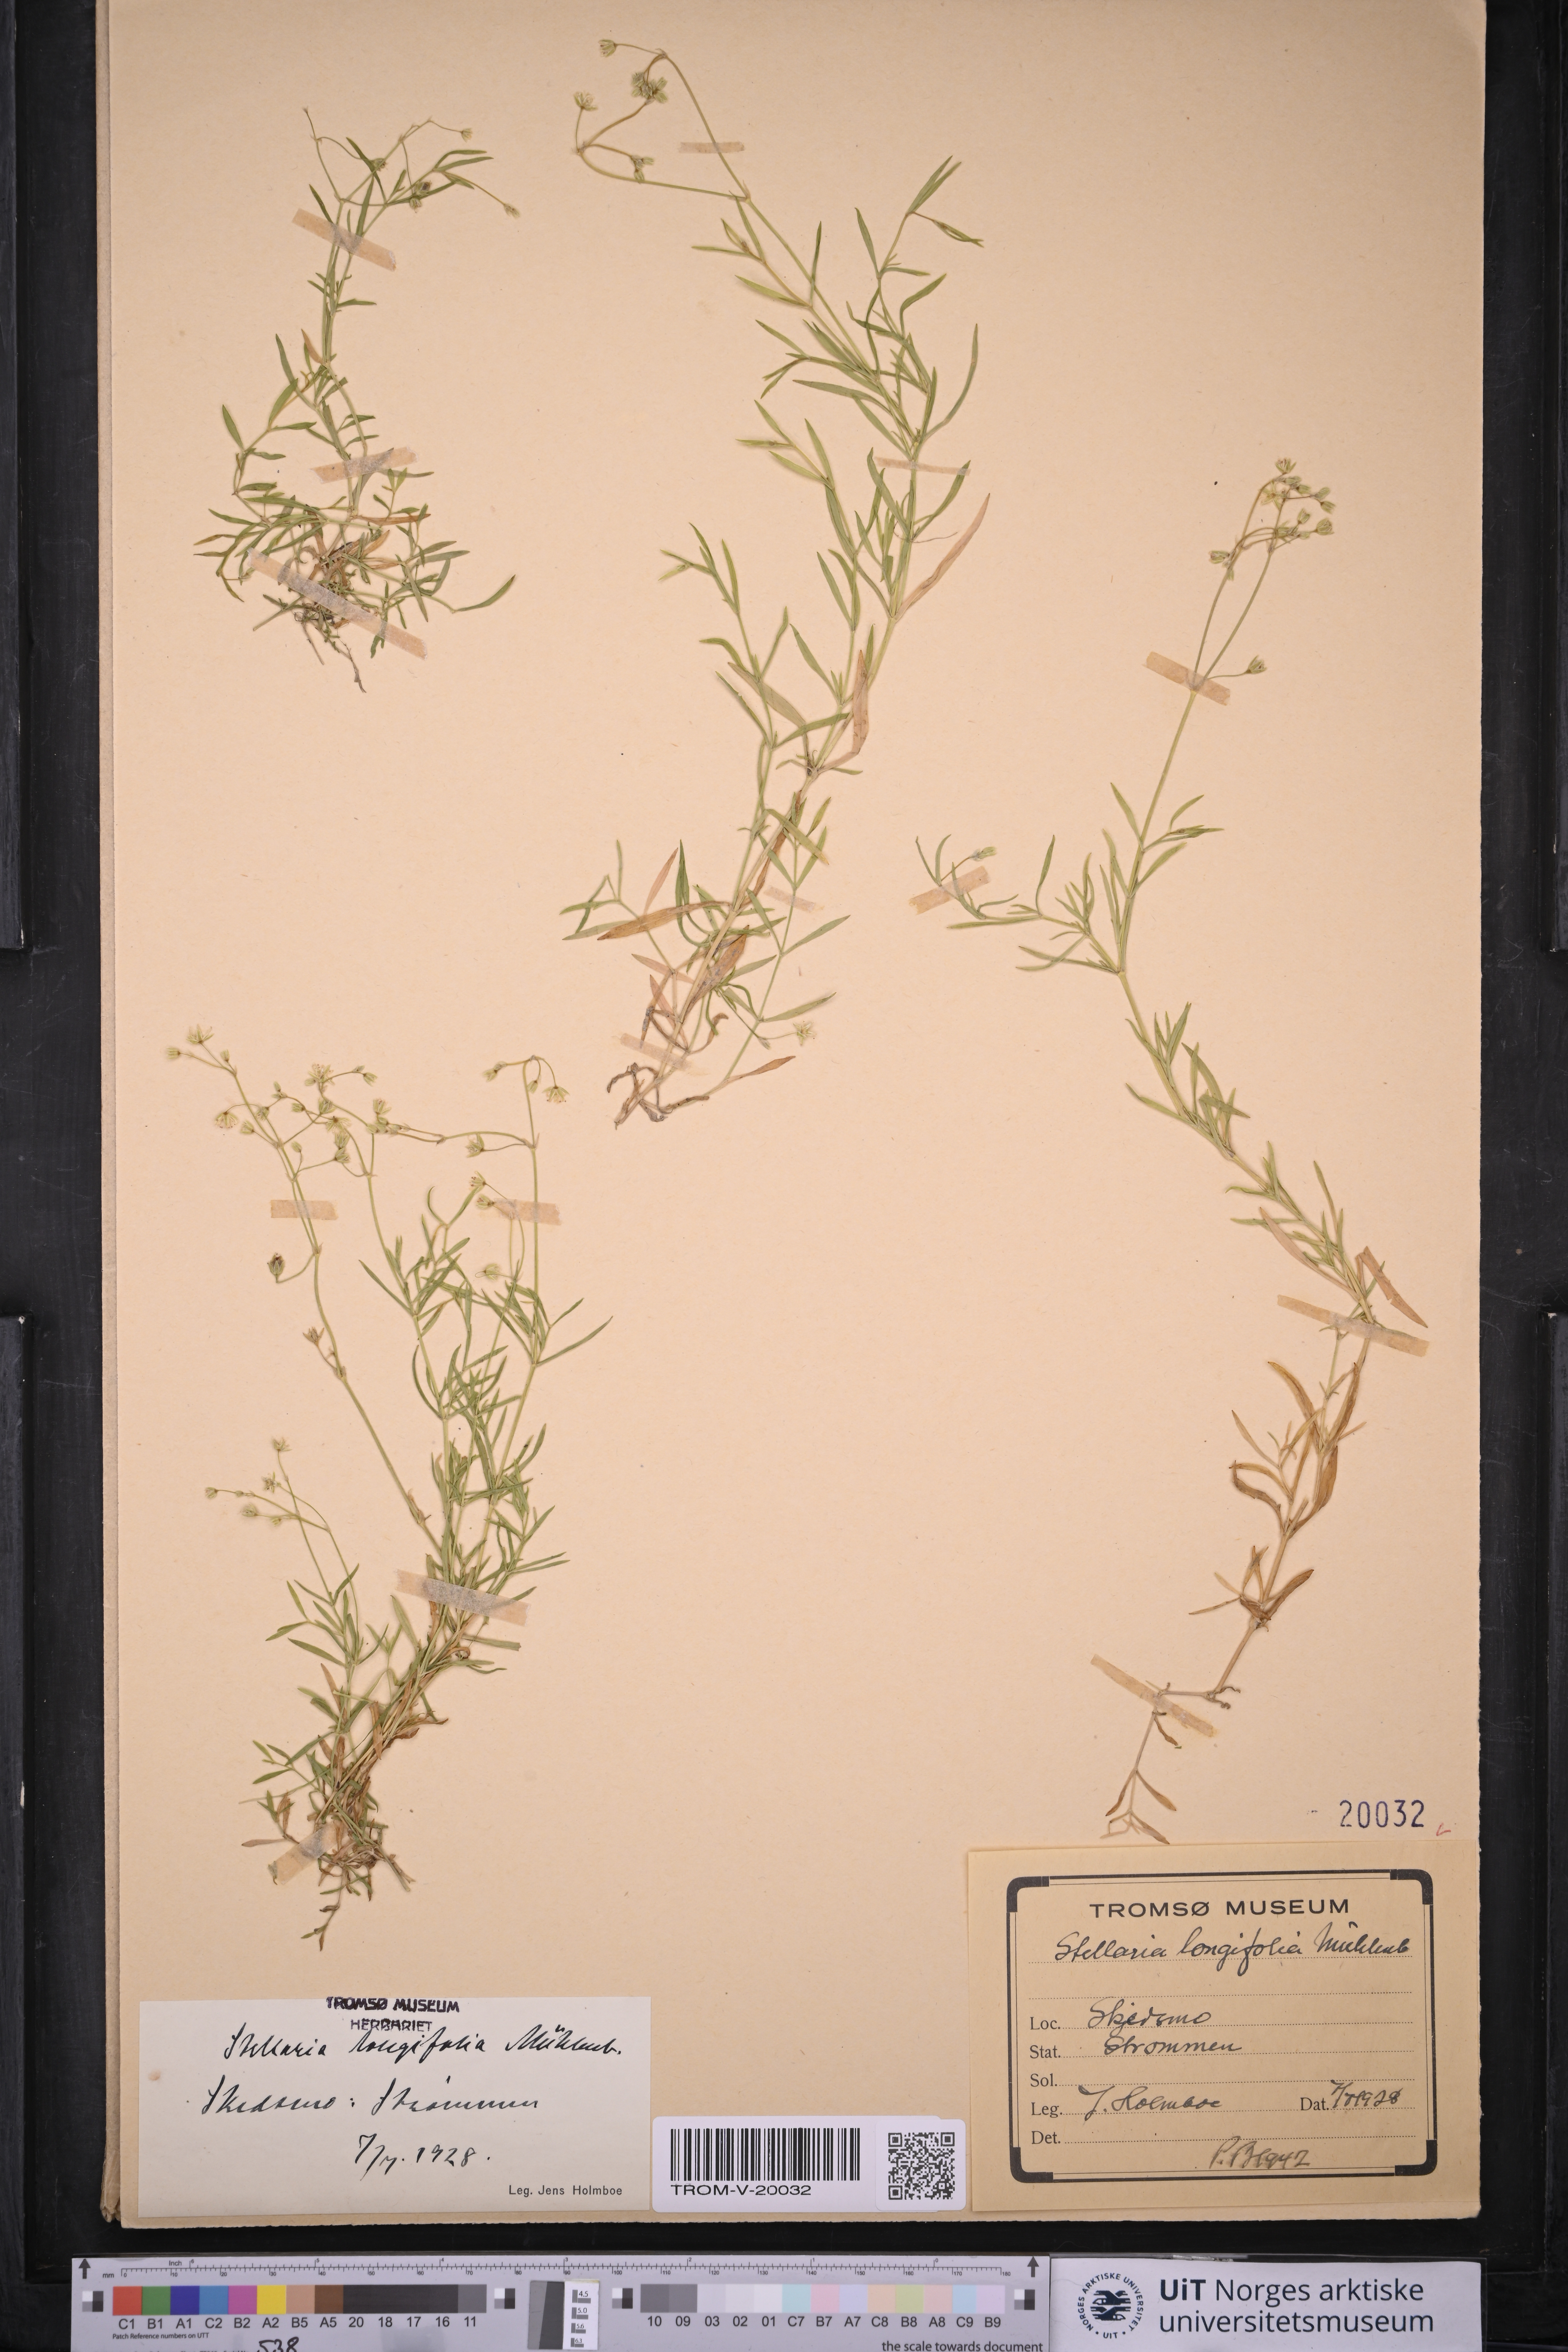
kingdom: Plantae
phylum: Tracheophyta
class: Magnoliopsida
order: Caryophyllales
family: Caryophyllaceae
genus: Stellaria
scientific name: Stellaria longifolia
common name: Long-leaved chickweed
